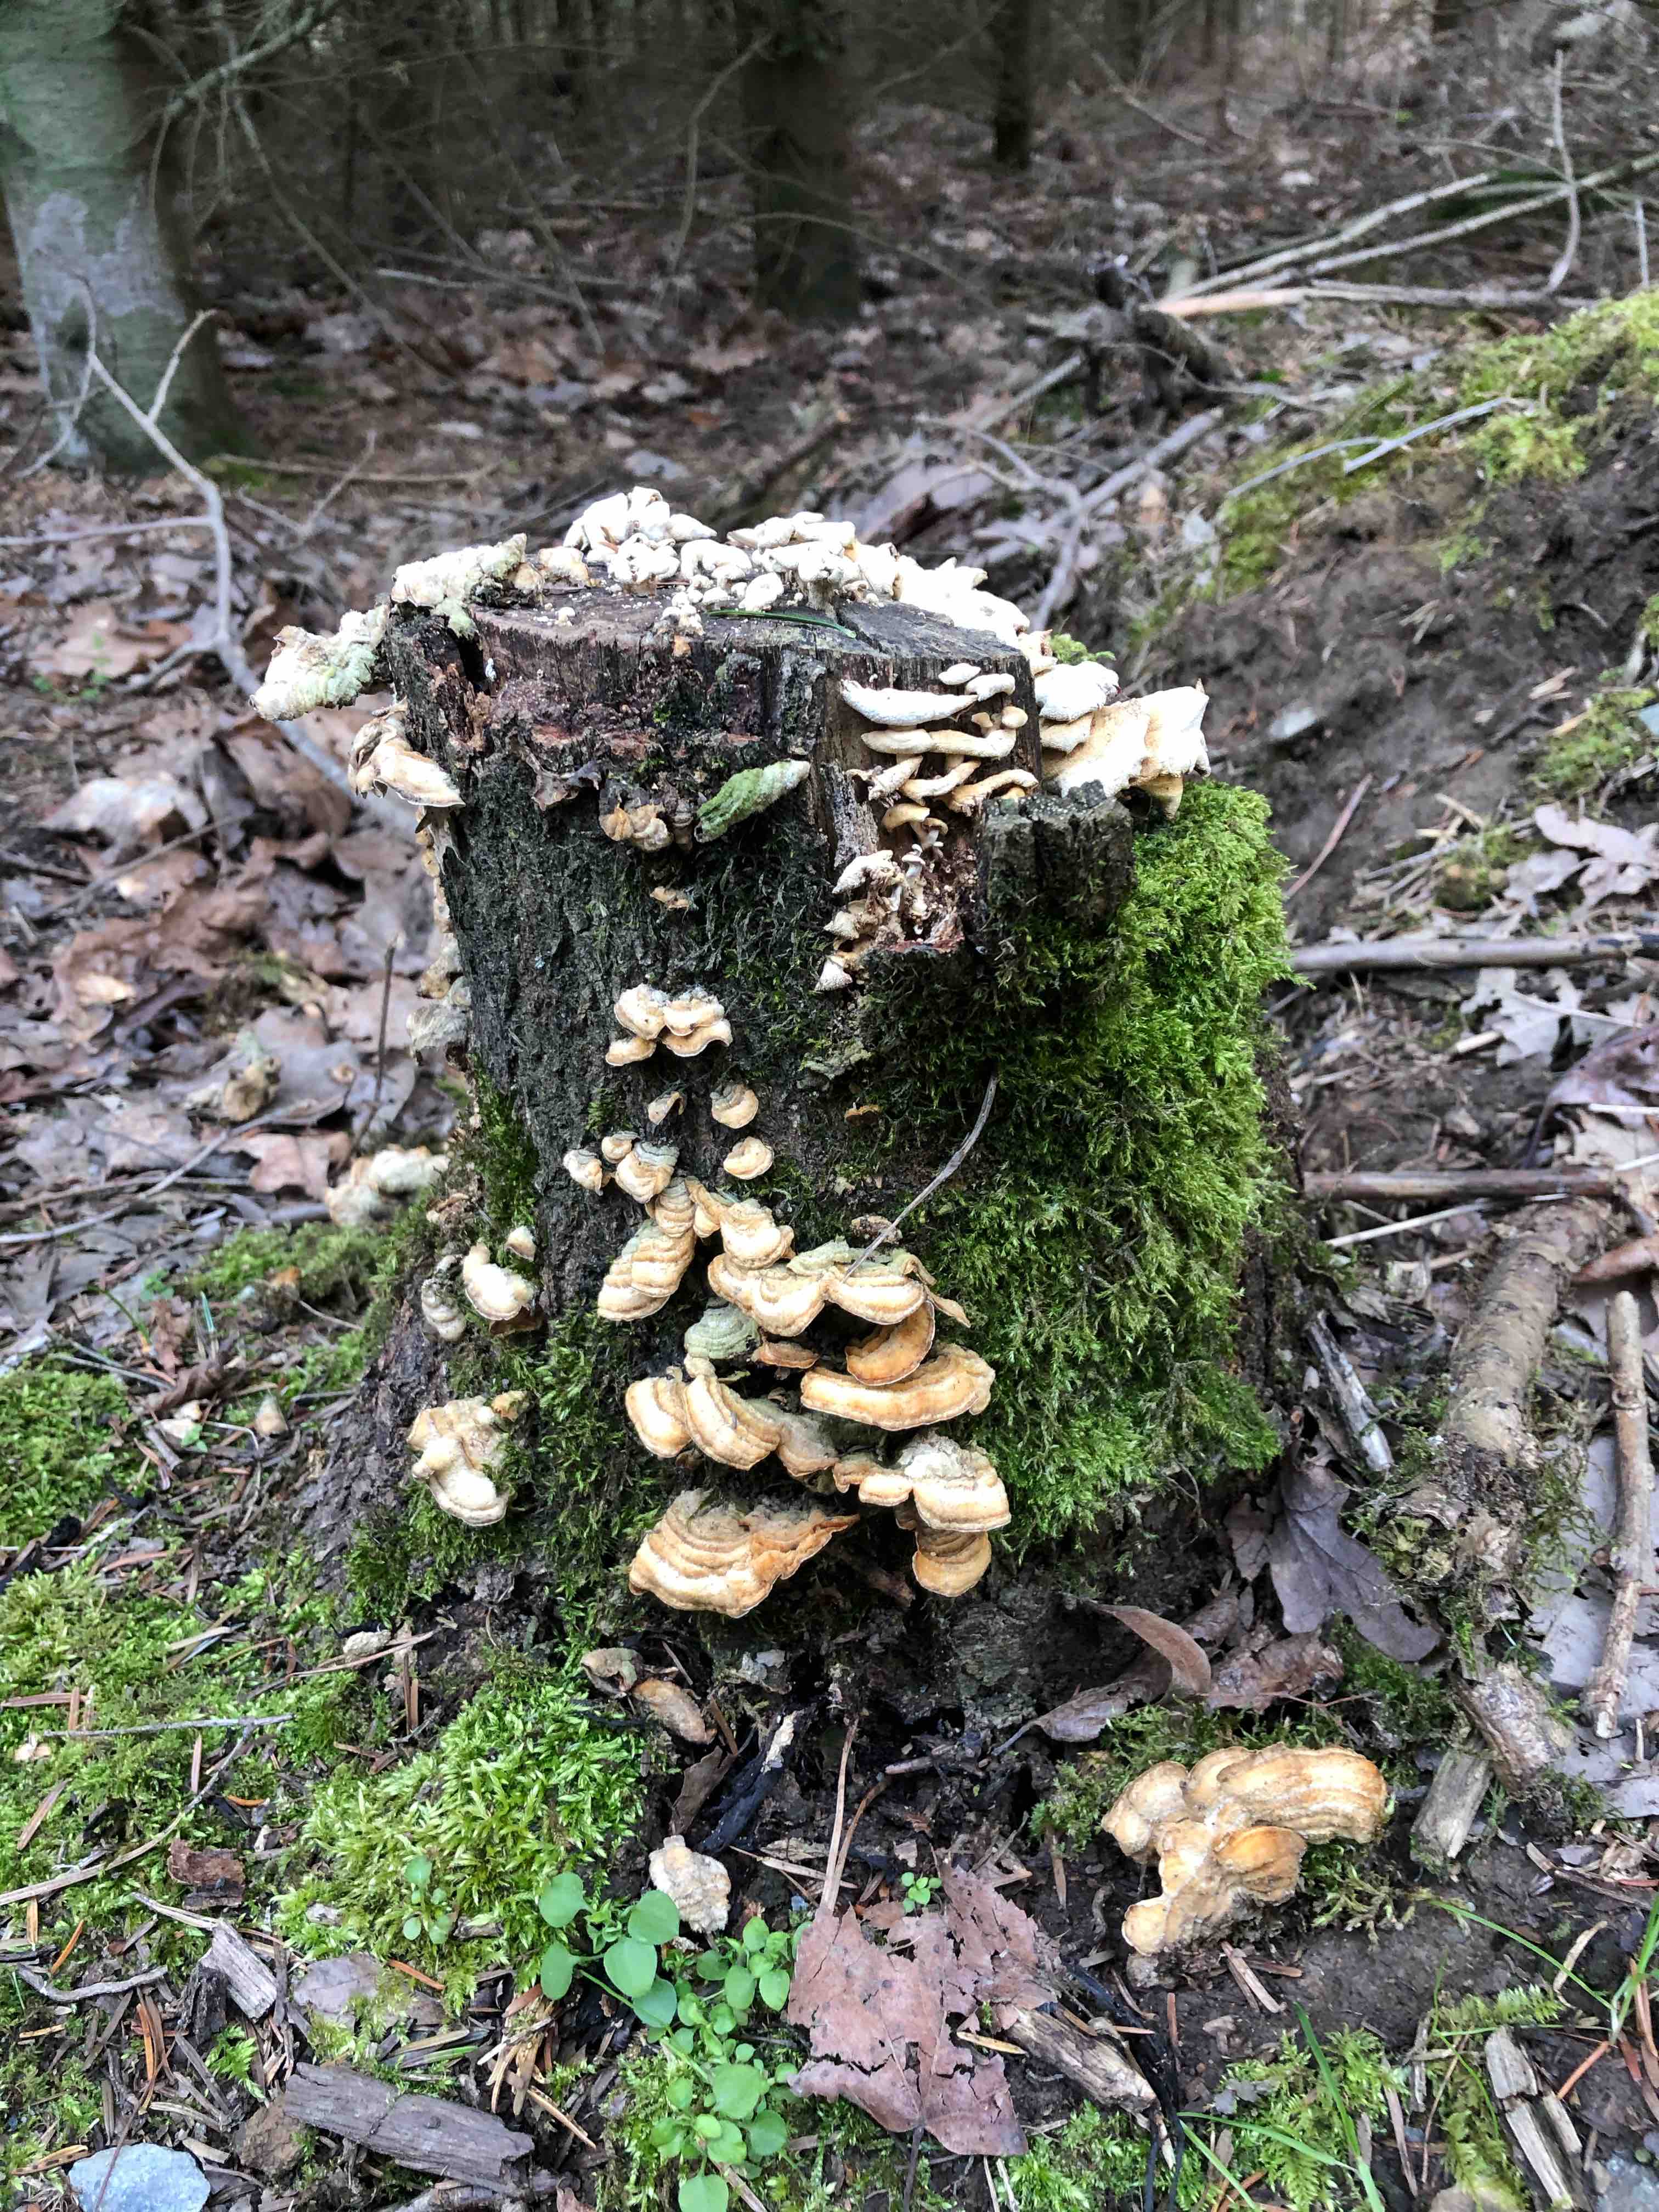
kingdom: Fungi
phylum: Basidiomycota
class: Agaricomycetes
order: Russulales
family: Stereaceae
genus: Stereum
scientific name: Stereum
